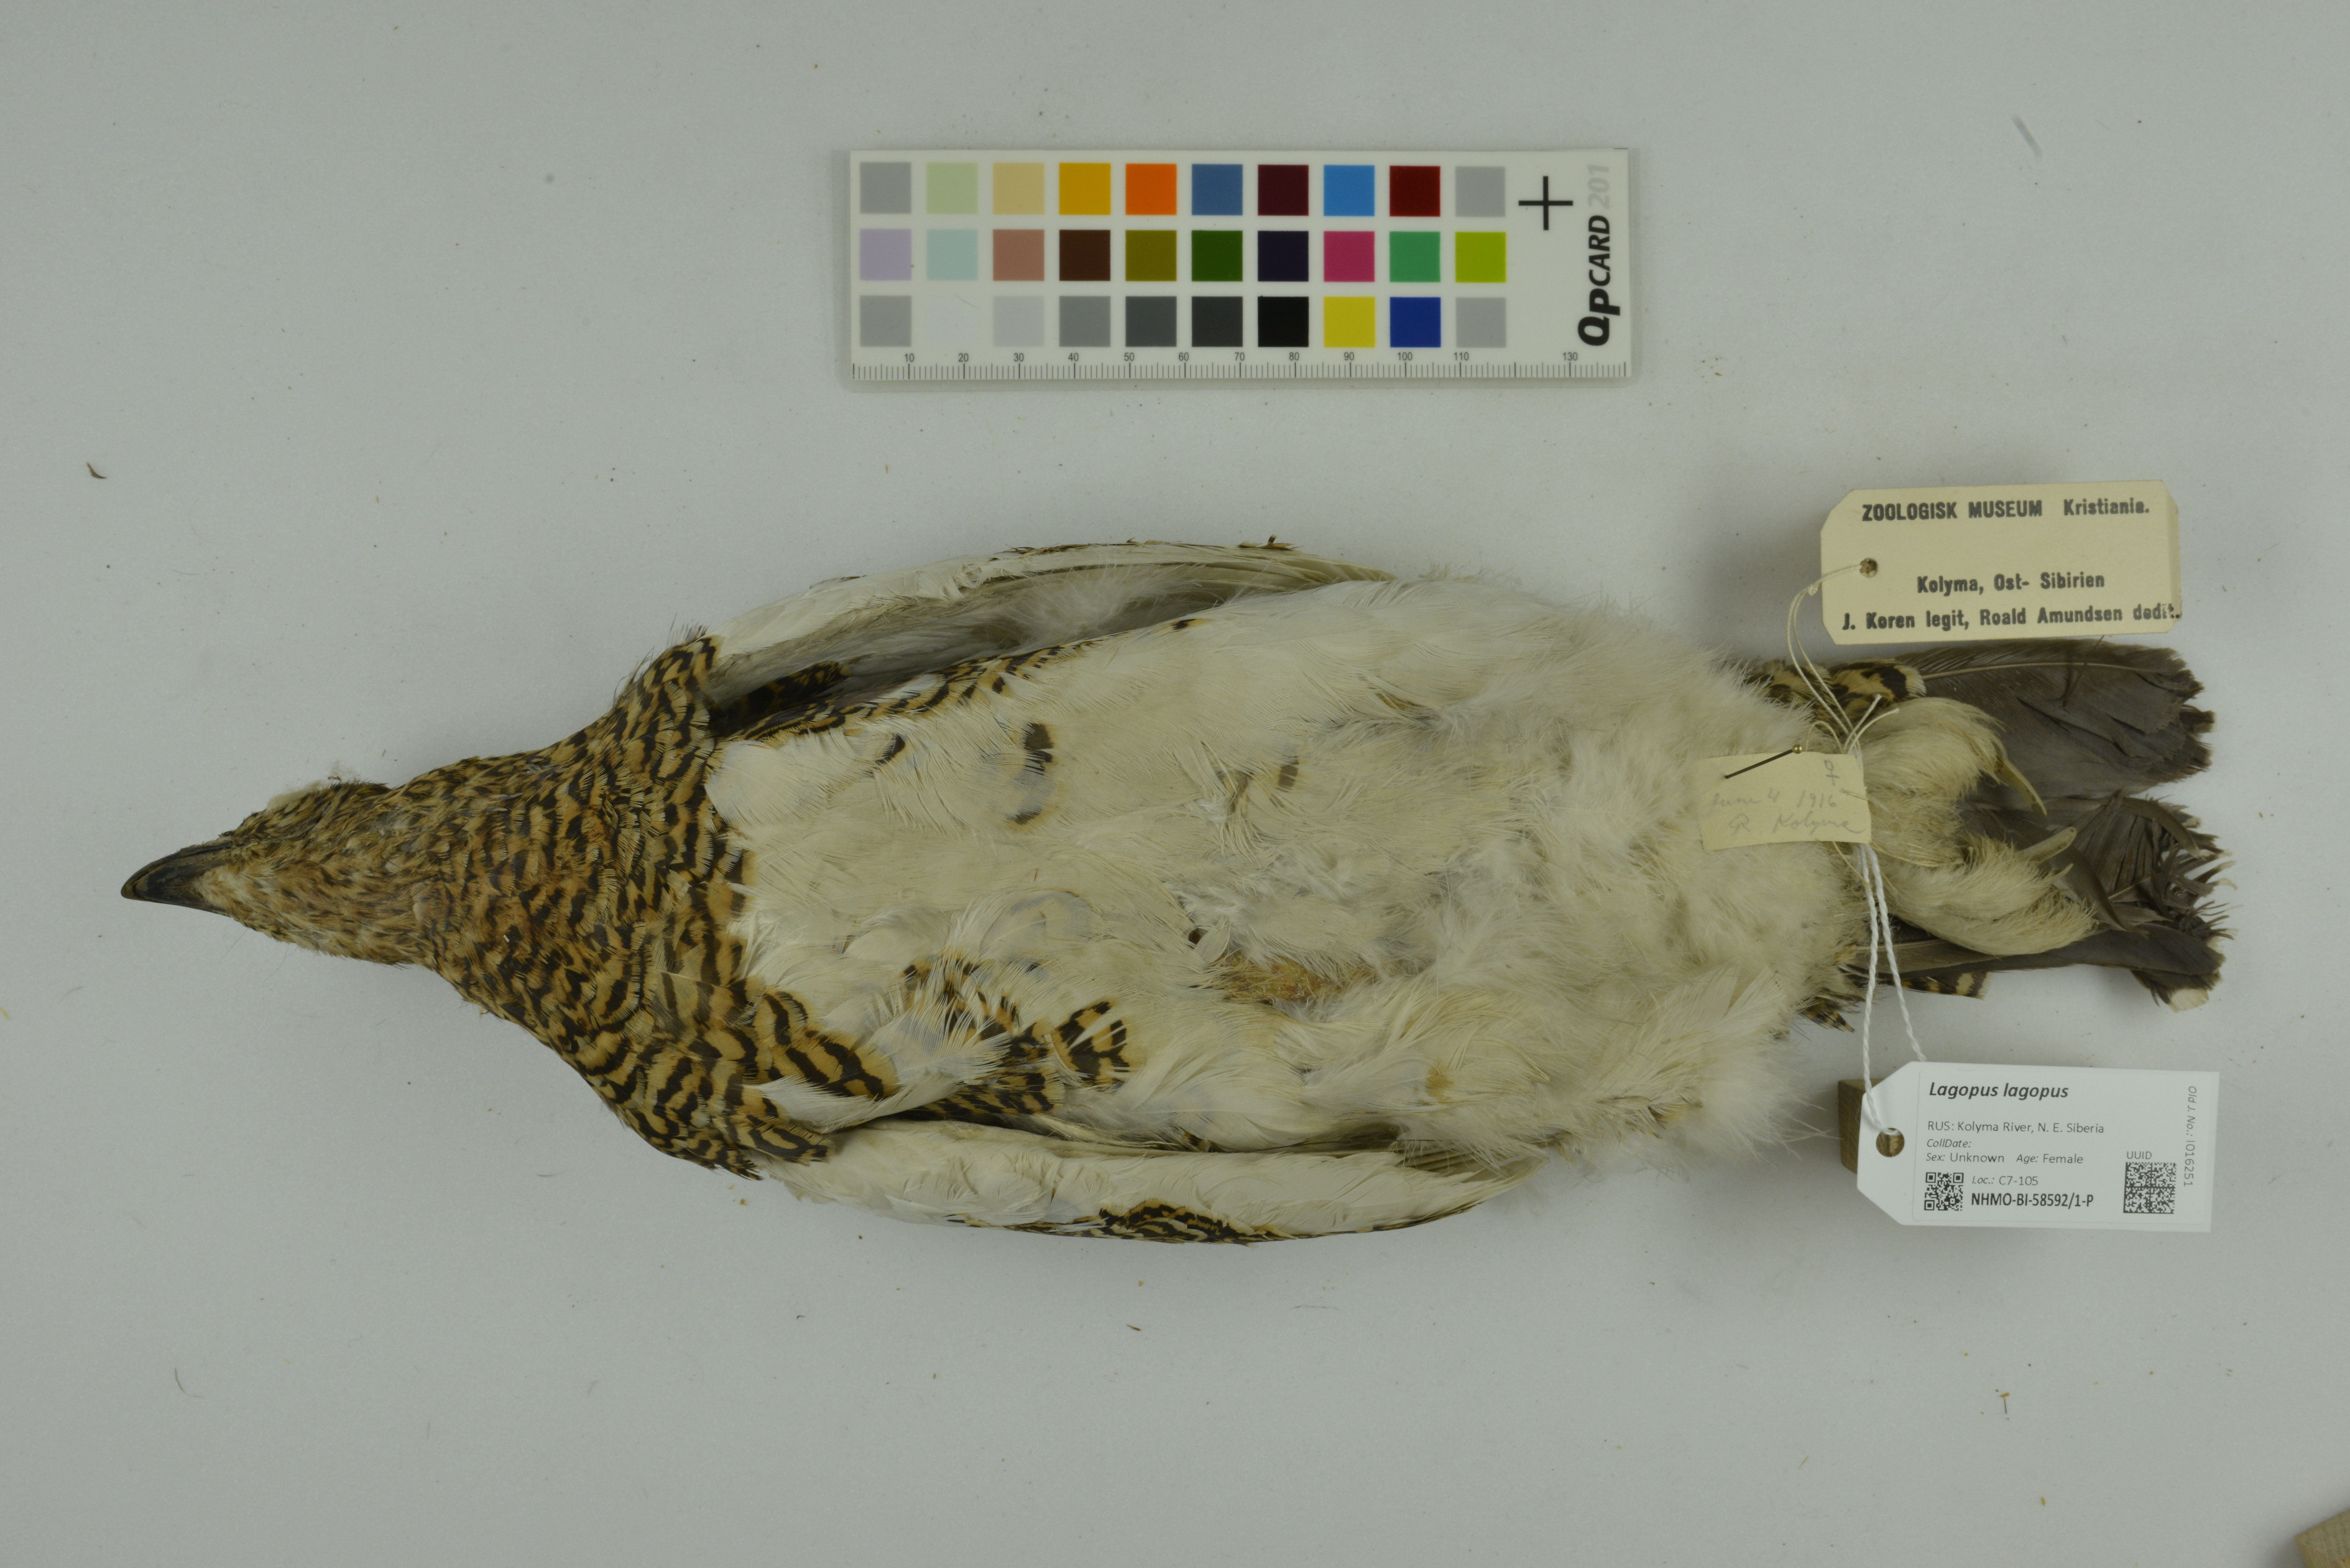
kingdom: Animalia
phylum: Chordata
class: Aves
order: Galliformes
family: Phasianidae
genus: Lagopus
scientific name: Lagopus lagopus
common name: Willow ptarmigan
